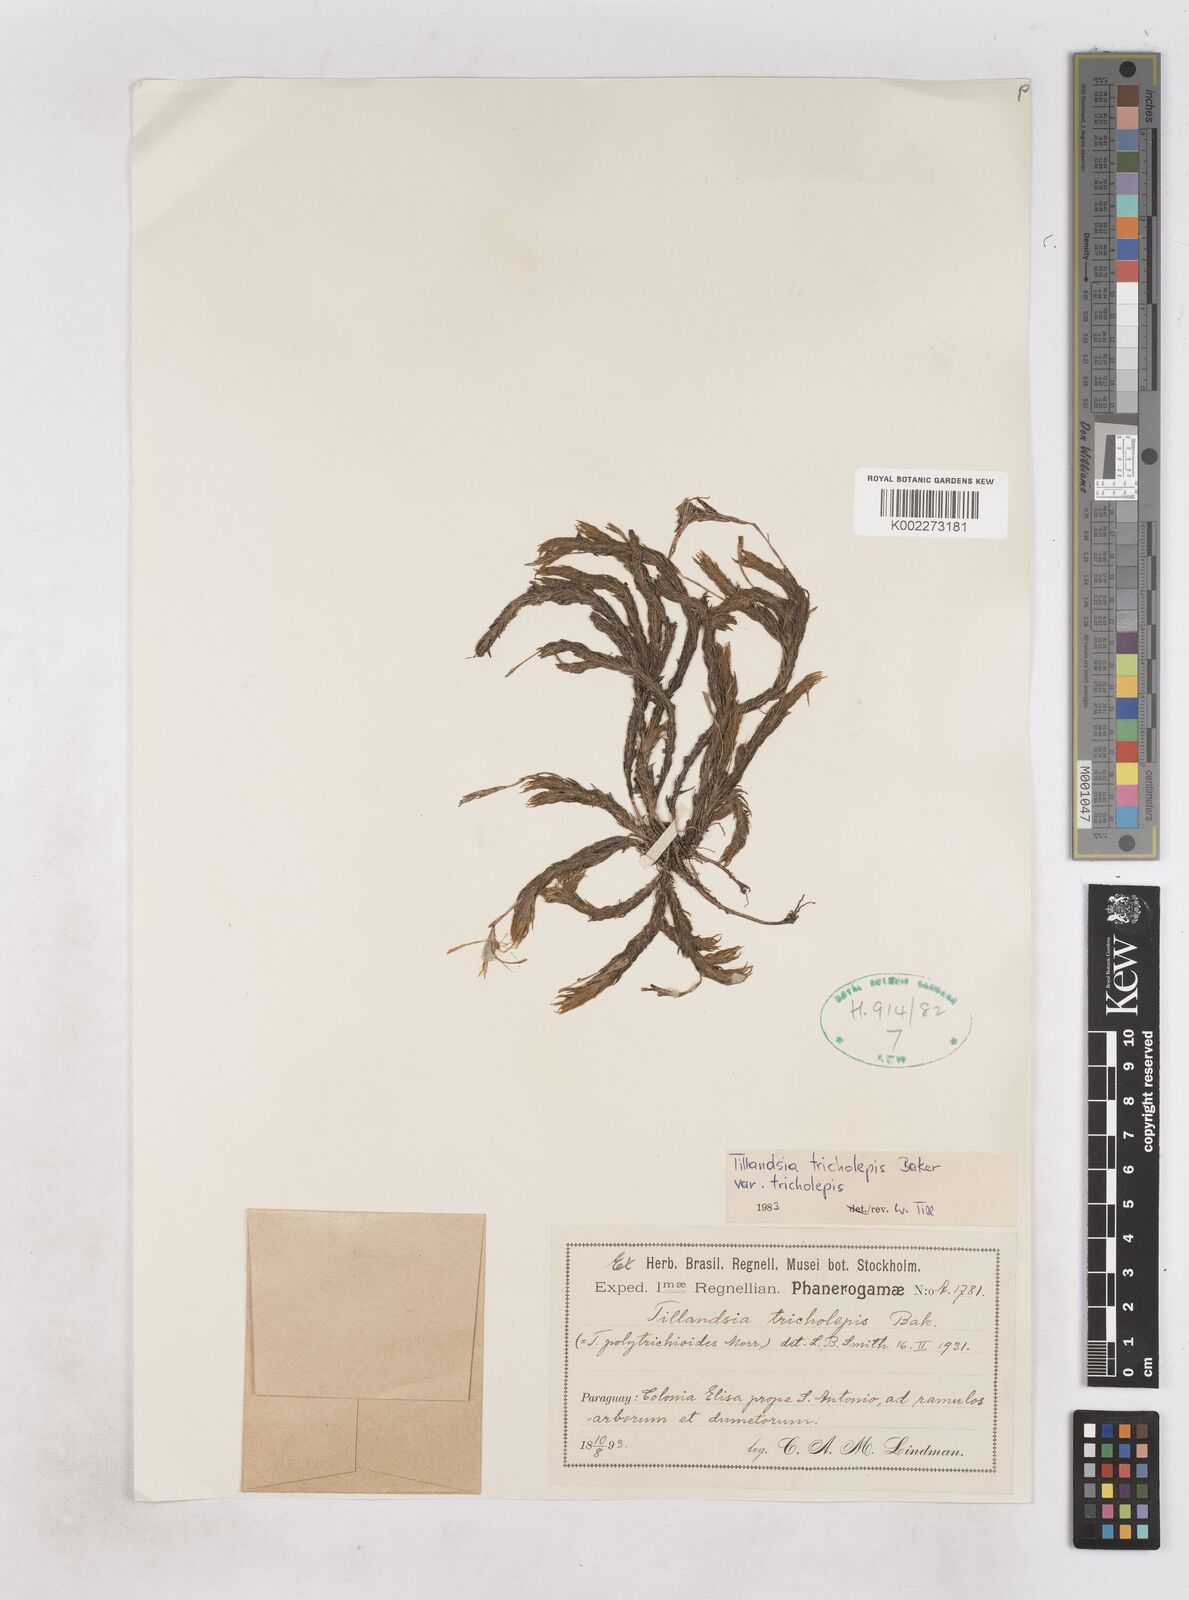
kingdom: Plantae
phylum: Tracheophyta
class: Liliopsida
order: Poales
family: Bromeliaceae
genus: Tillandsia
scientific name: Tillandsia tricholepis
